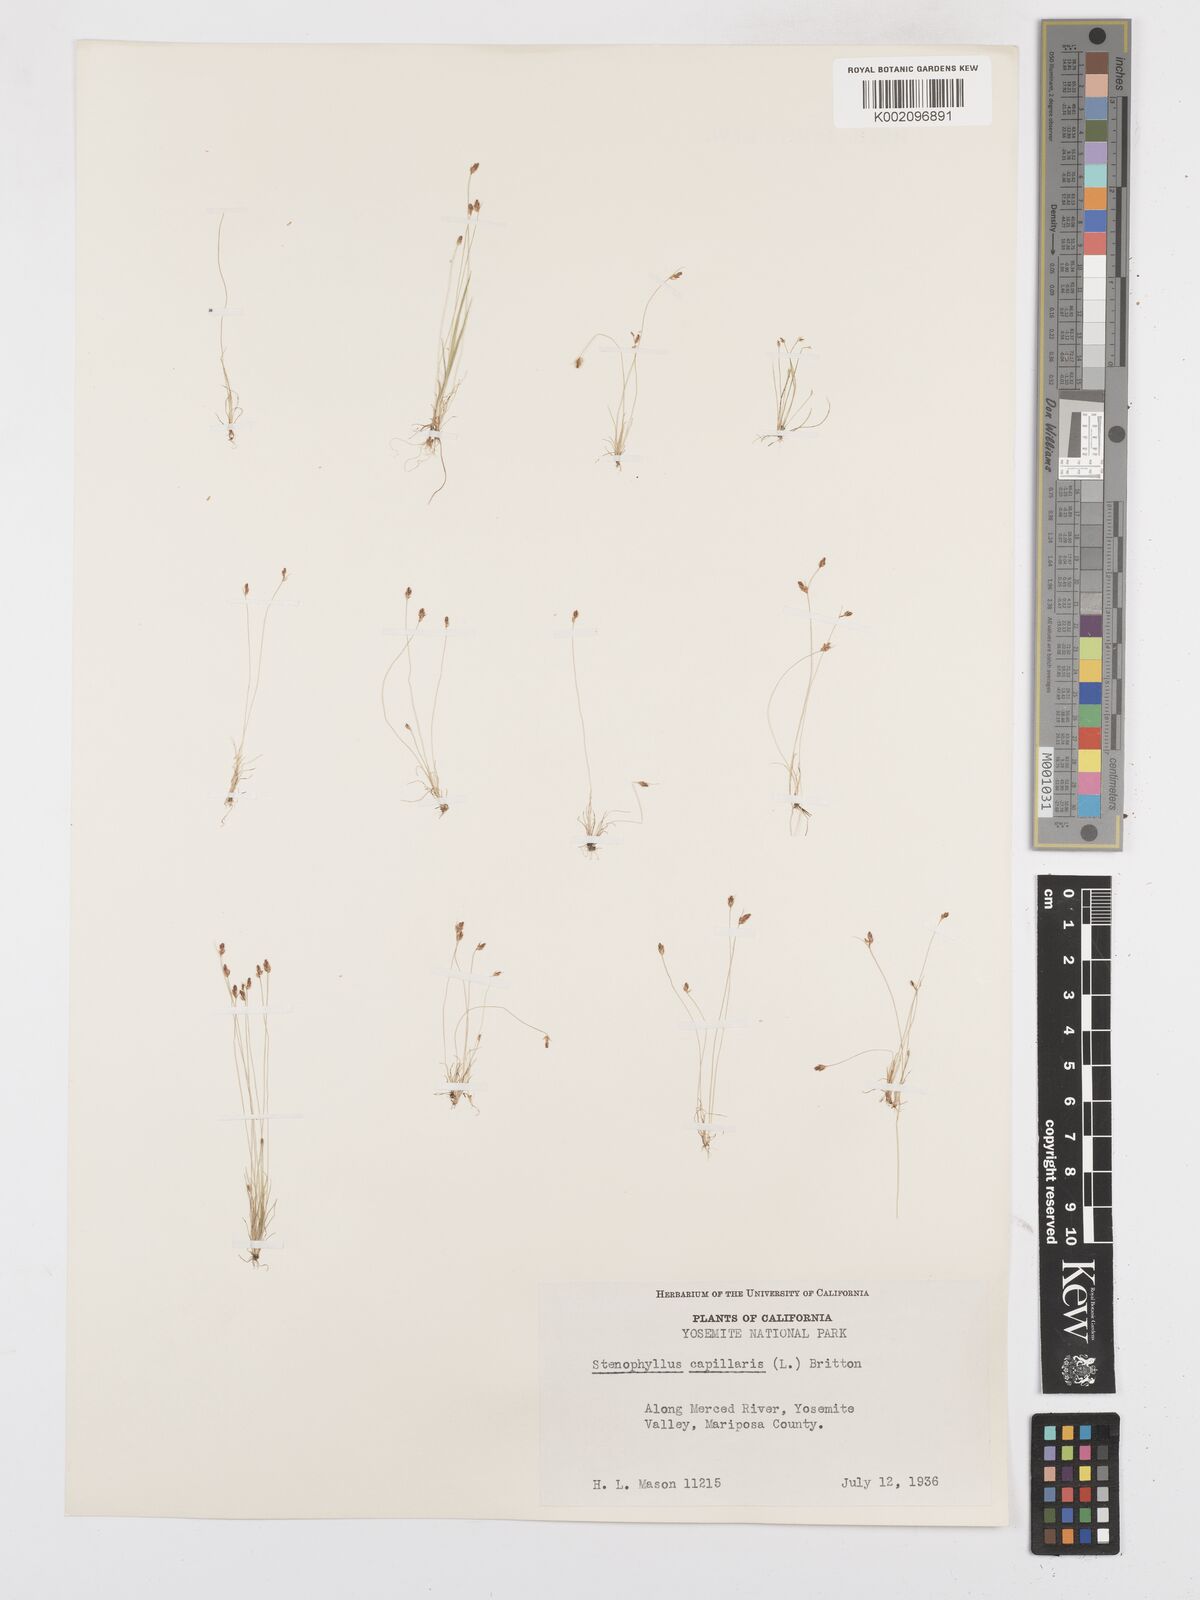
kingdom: Plantae
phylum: Tracheophyta
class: Liliopsida
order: Poales
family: Cyperaceae
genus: Bulbostylis
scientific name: Bulbostylis capillaris
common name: Densetuft hairsedge
